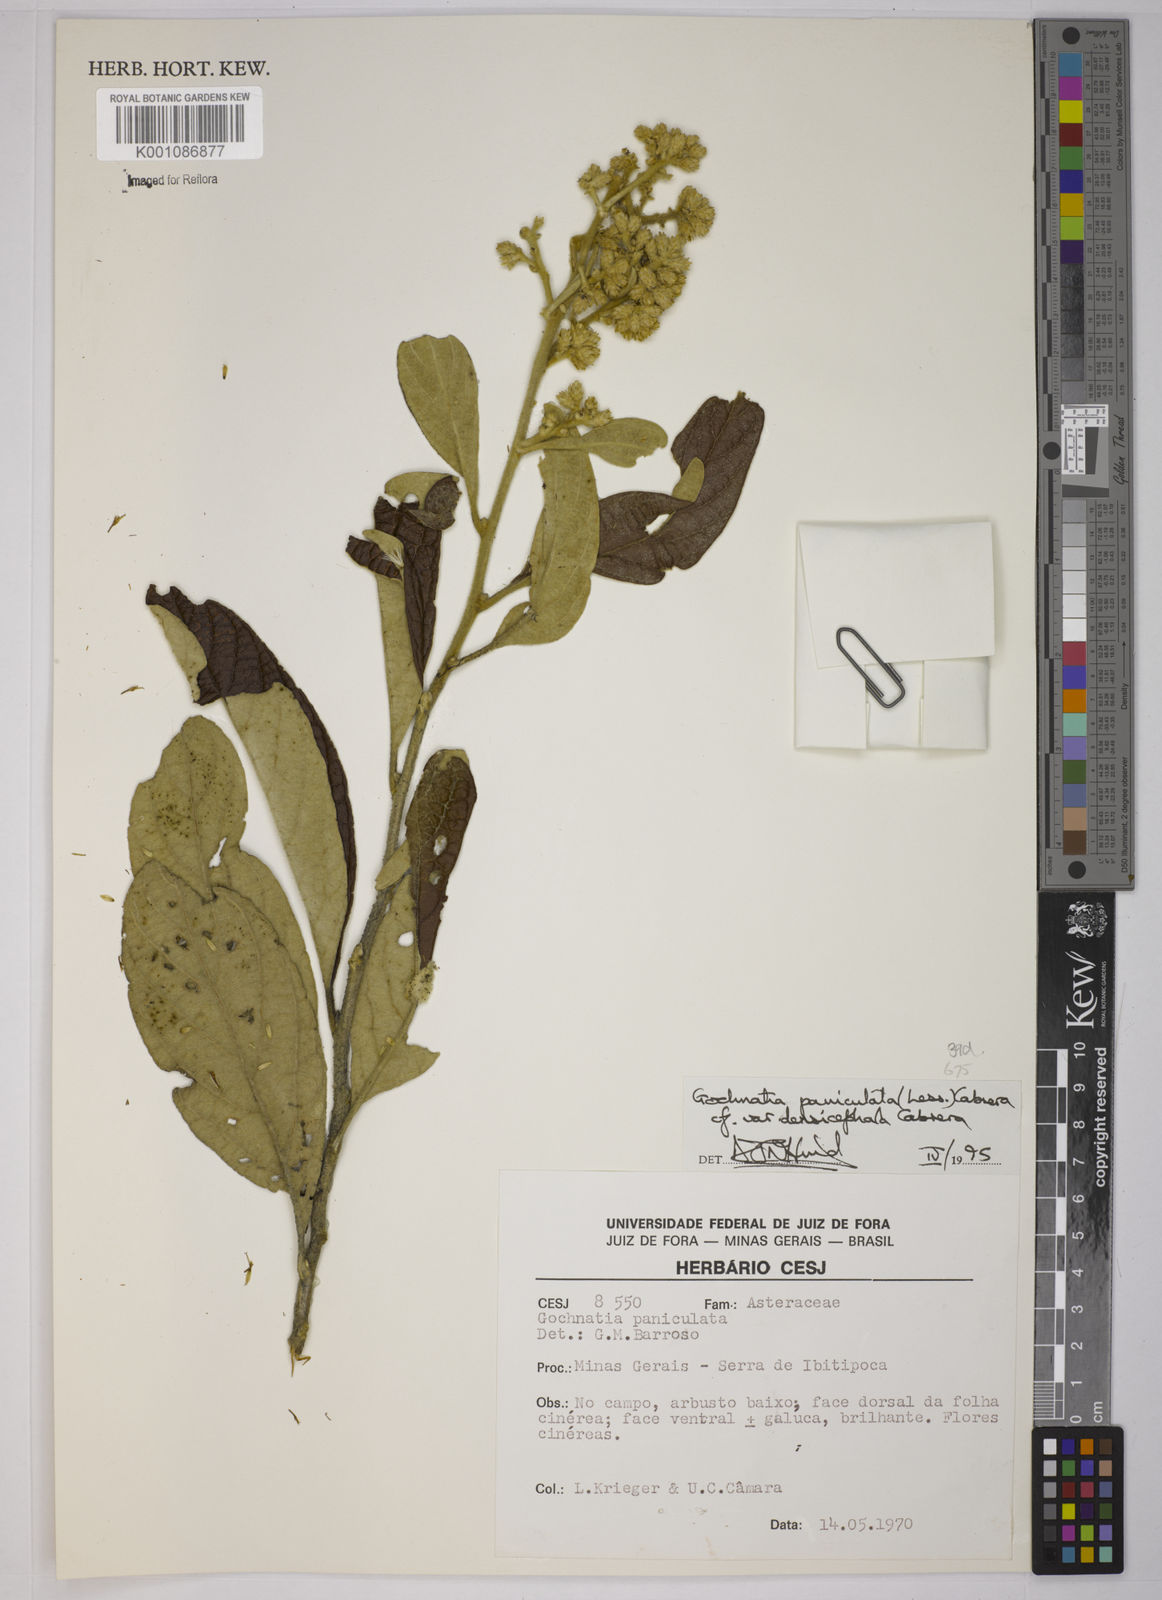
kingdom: Plantae
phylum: Tracheophyta
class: Magnoliopsida
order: Asterales
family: Asteraceae
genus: Moquiniastrum
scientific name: Moquiniastrum densicephalum
